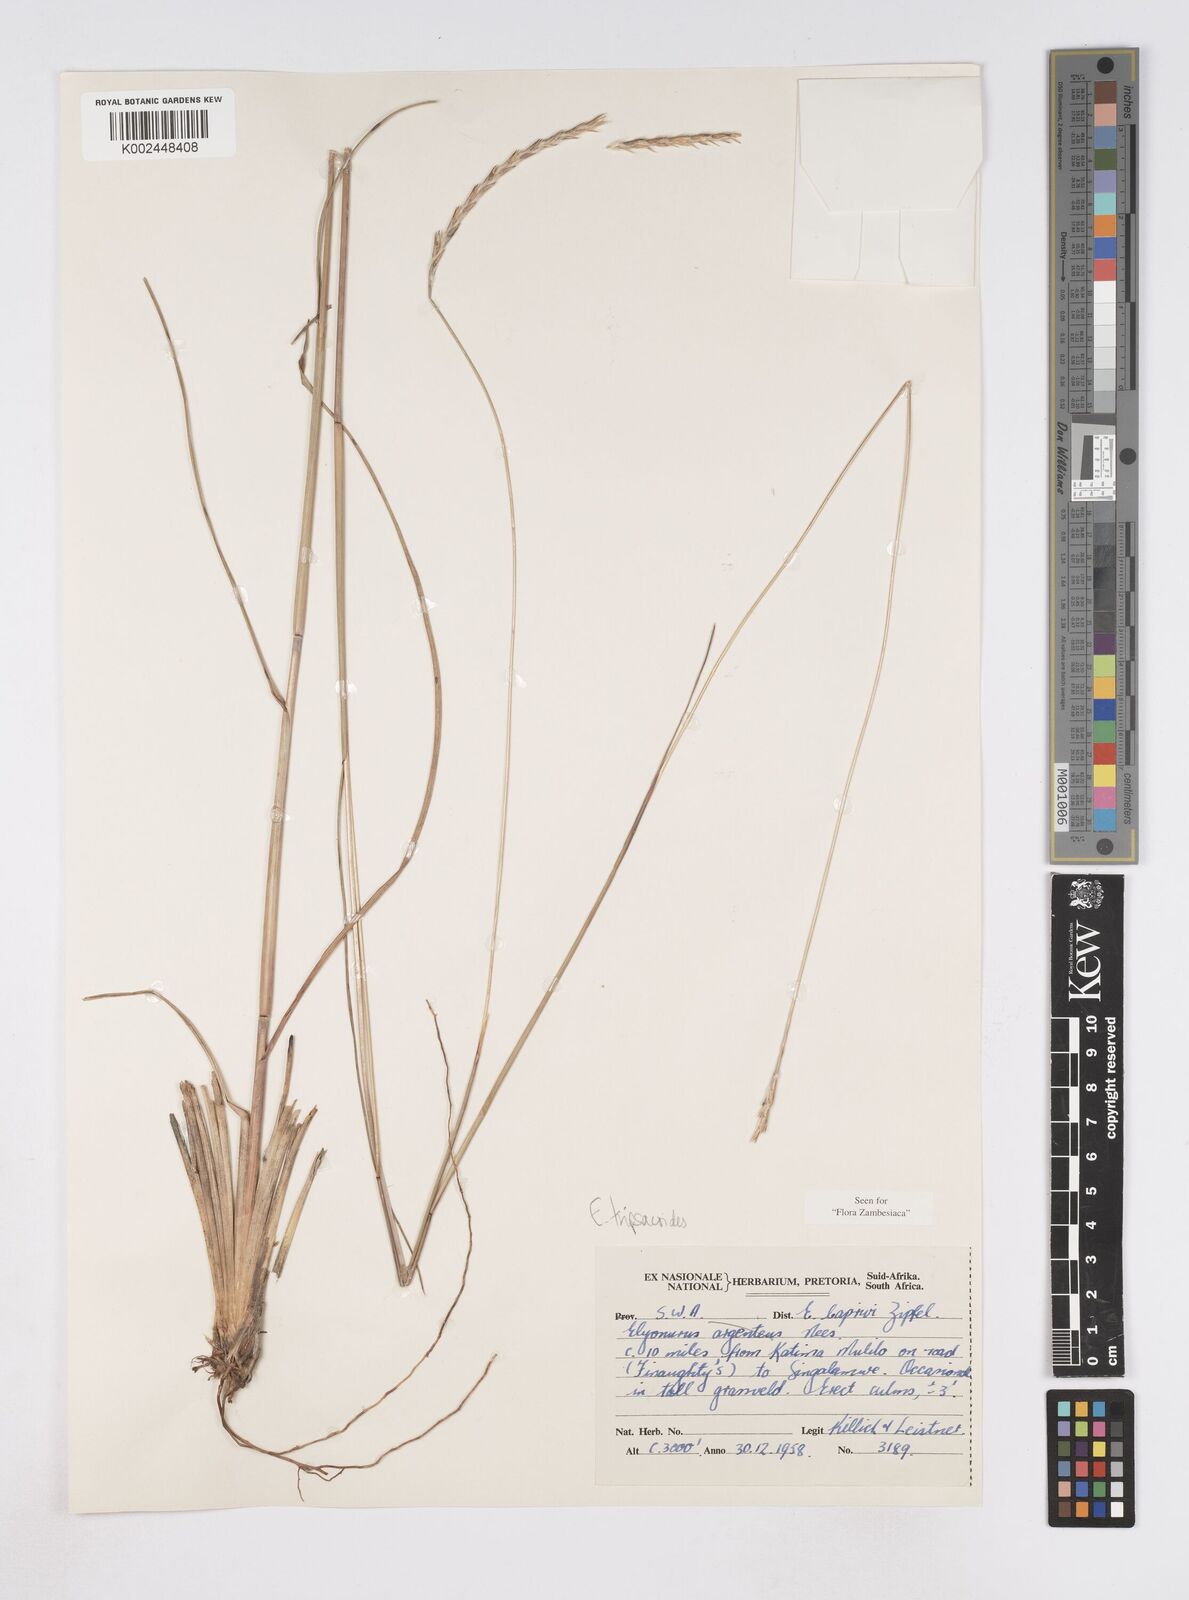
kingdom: Plantae
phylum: Tracheophyta
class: Liliopsida
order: Poales
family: Poaceae
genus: Elionurus
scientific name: Elionurus tripsacoides
